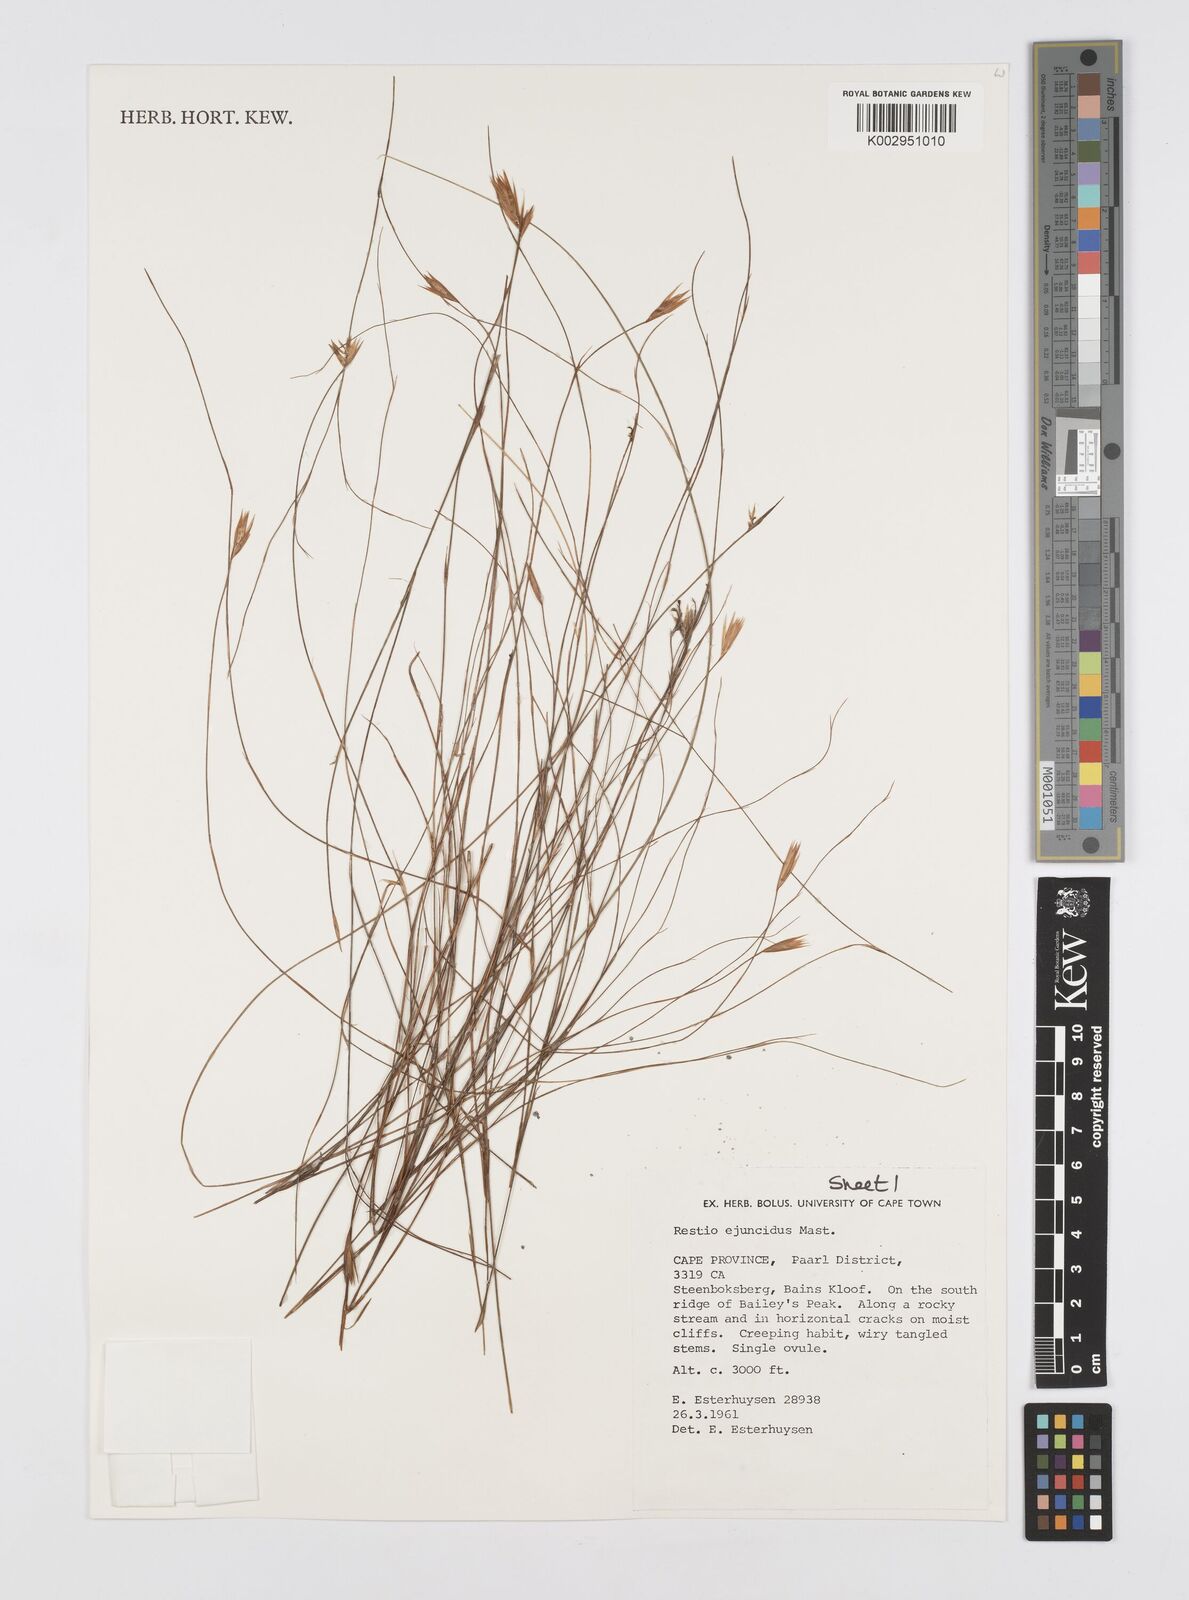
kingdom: Plantae
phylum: Tracheophyta
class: Liliopsida
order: Poales
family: Restionaceae
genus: Restio
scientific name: Restio ejuncidus
